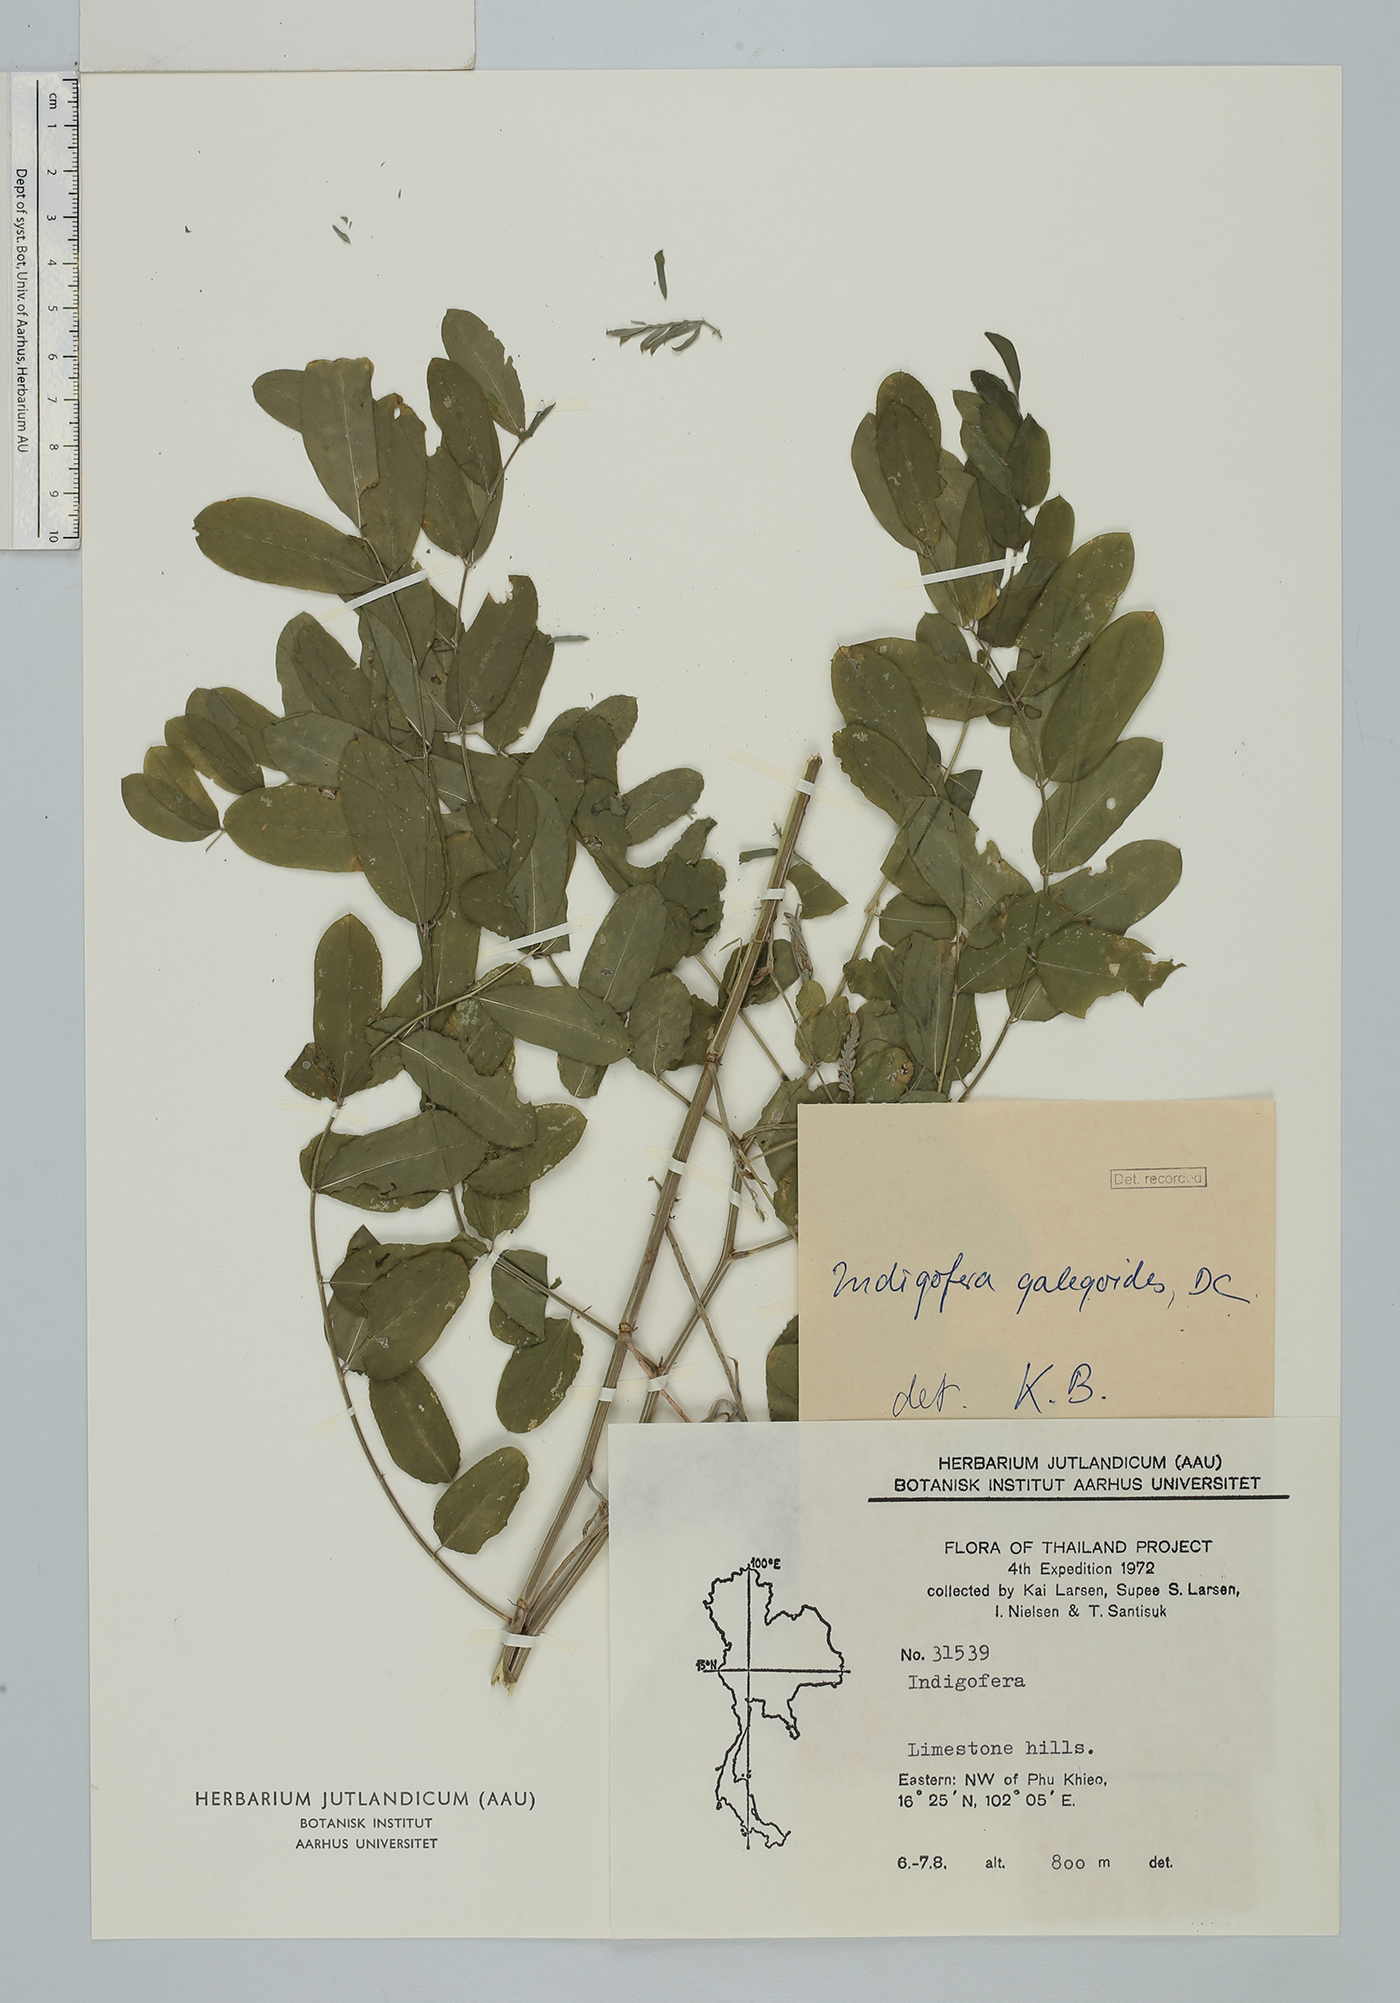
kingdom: Plantae
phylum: Tracheophyta
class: Magnoliopsida
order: Fabales
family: Fabaceae
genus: Indigofera
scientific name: Indigofera galegoides
